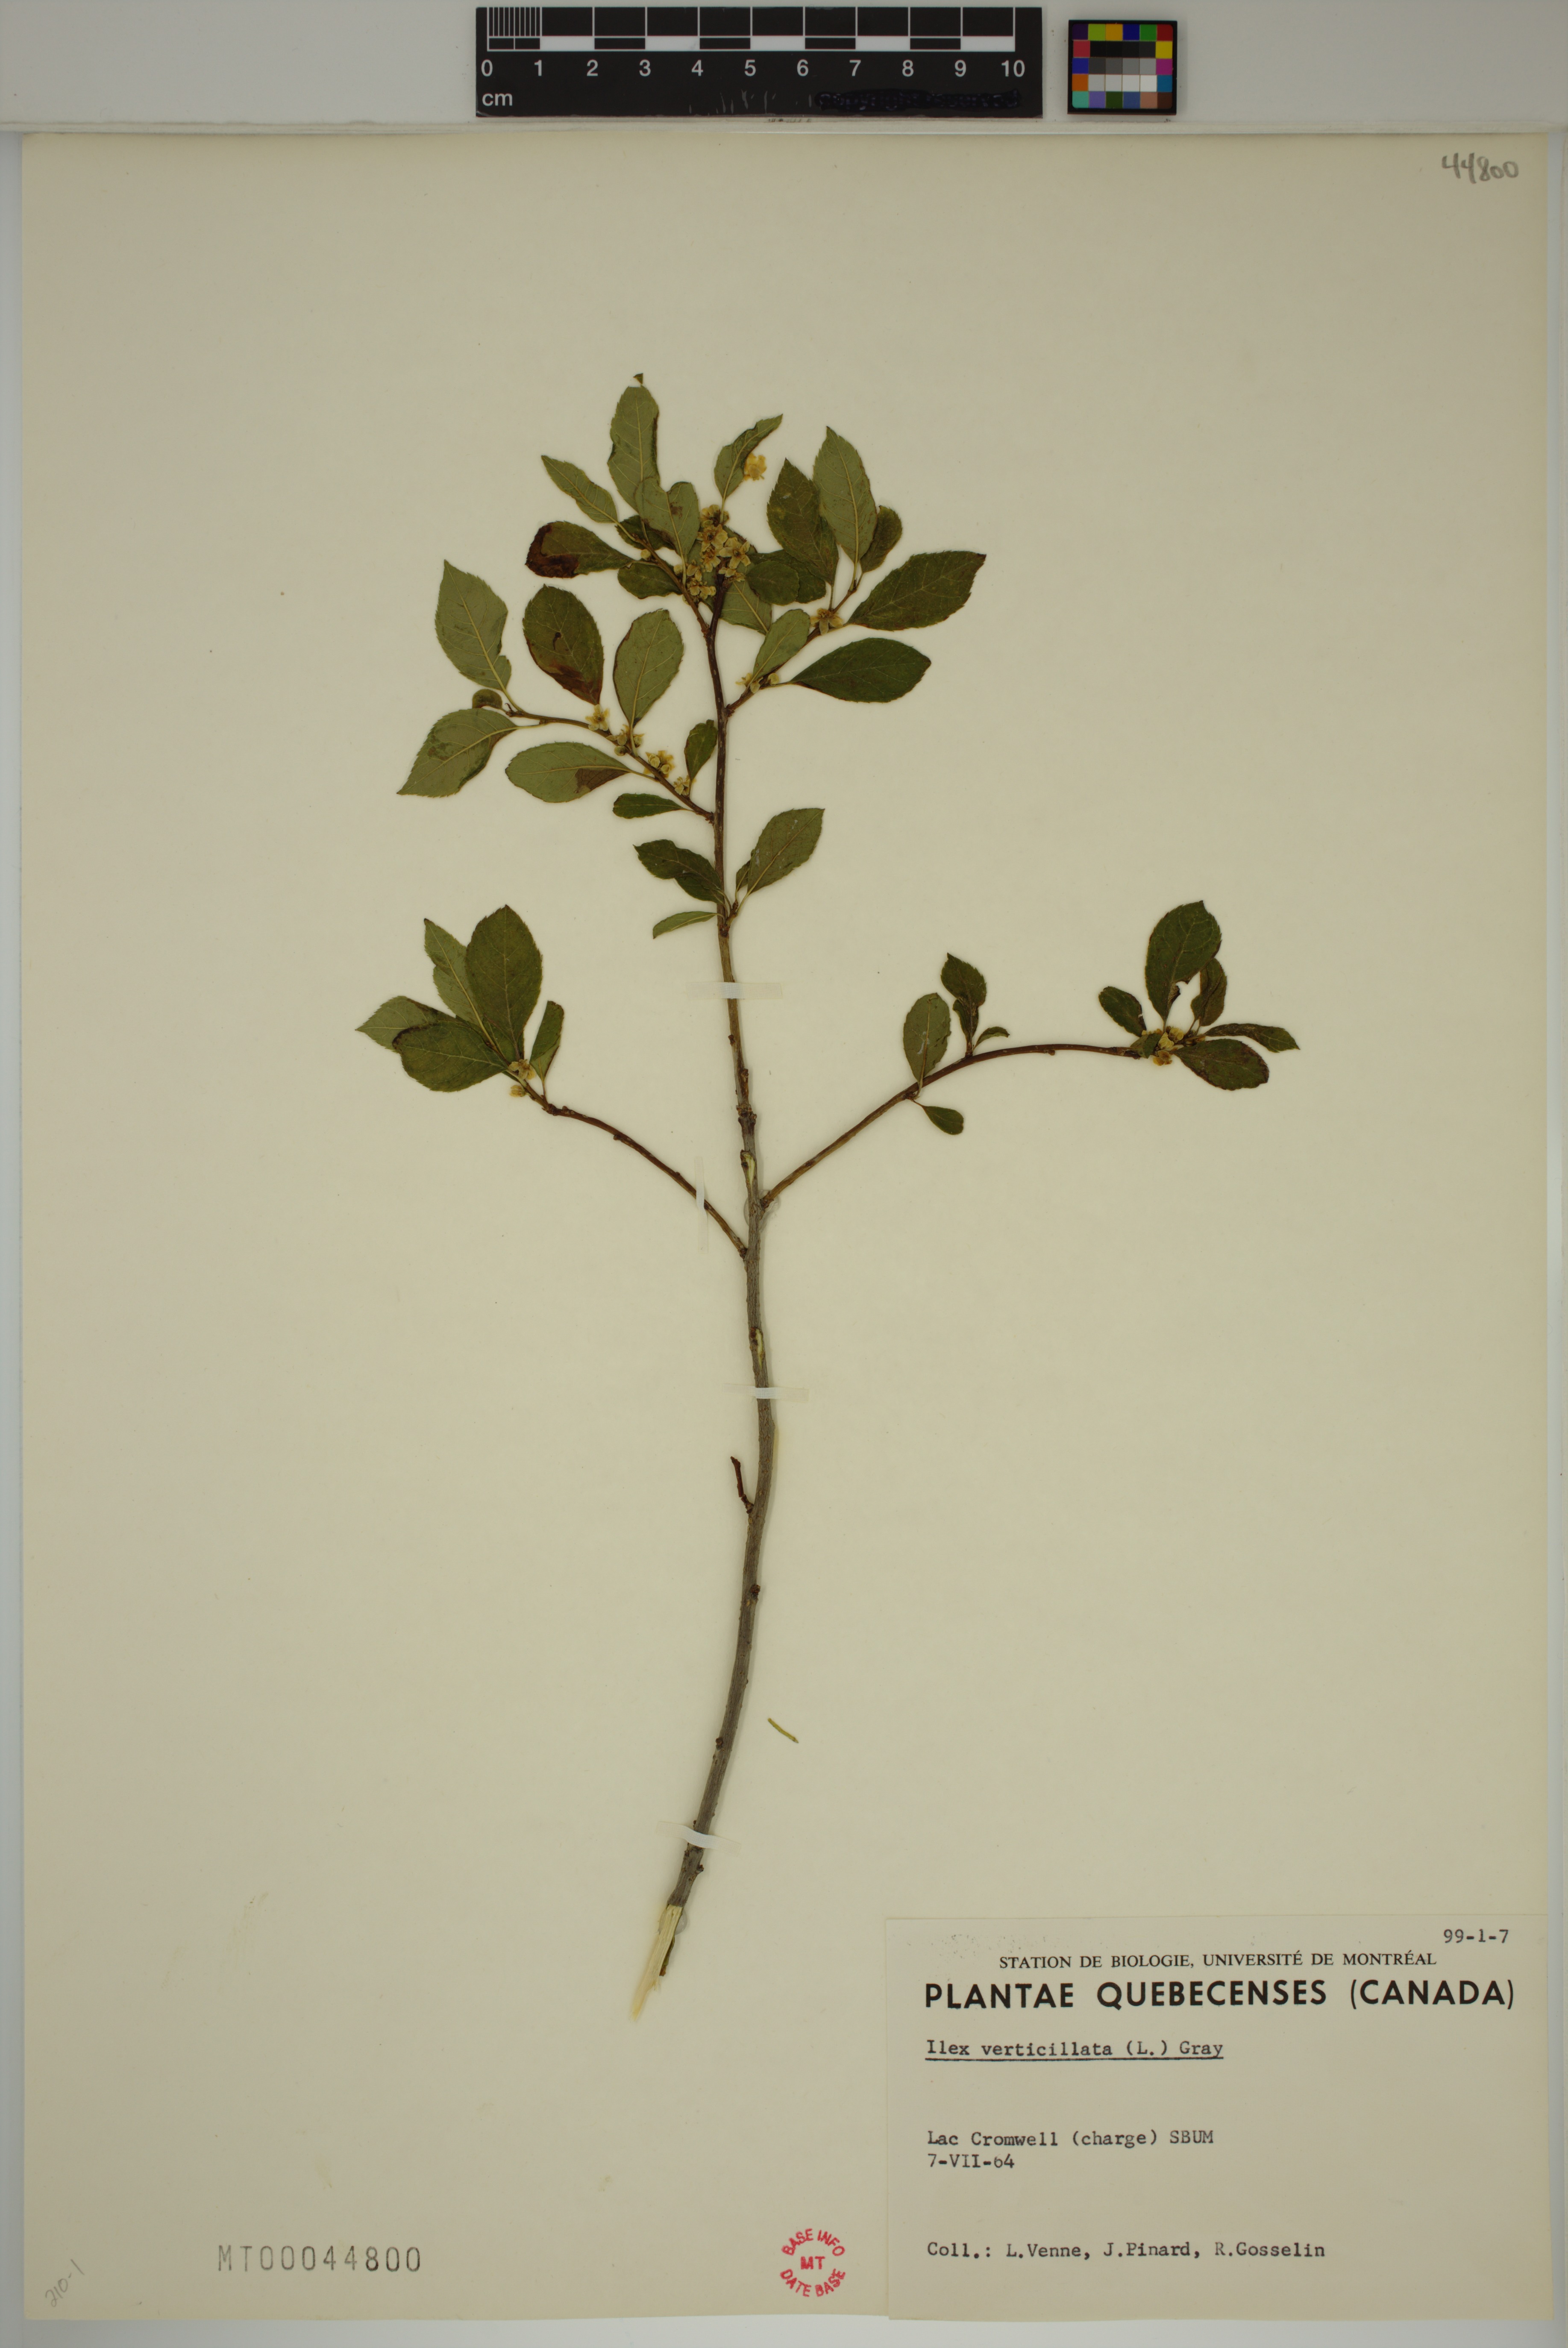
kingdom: Plantae
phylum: Tracheophyta
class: Magnoliopsida
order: Aquifoliales
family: Aquifoliaceae
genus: Ilex
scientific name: Ilex verticillata
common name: Virginia winterberry
